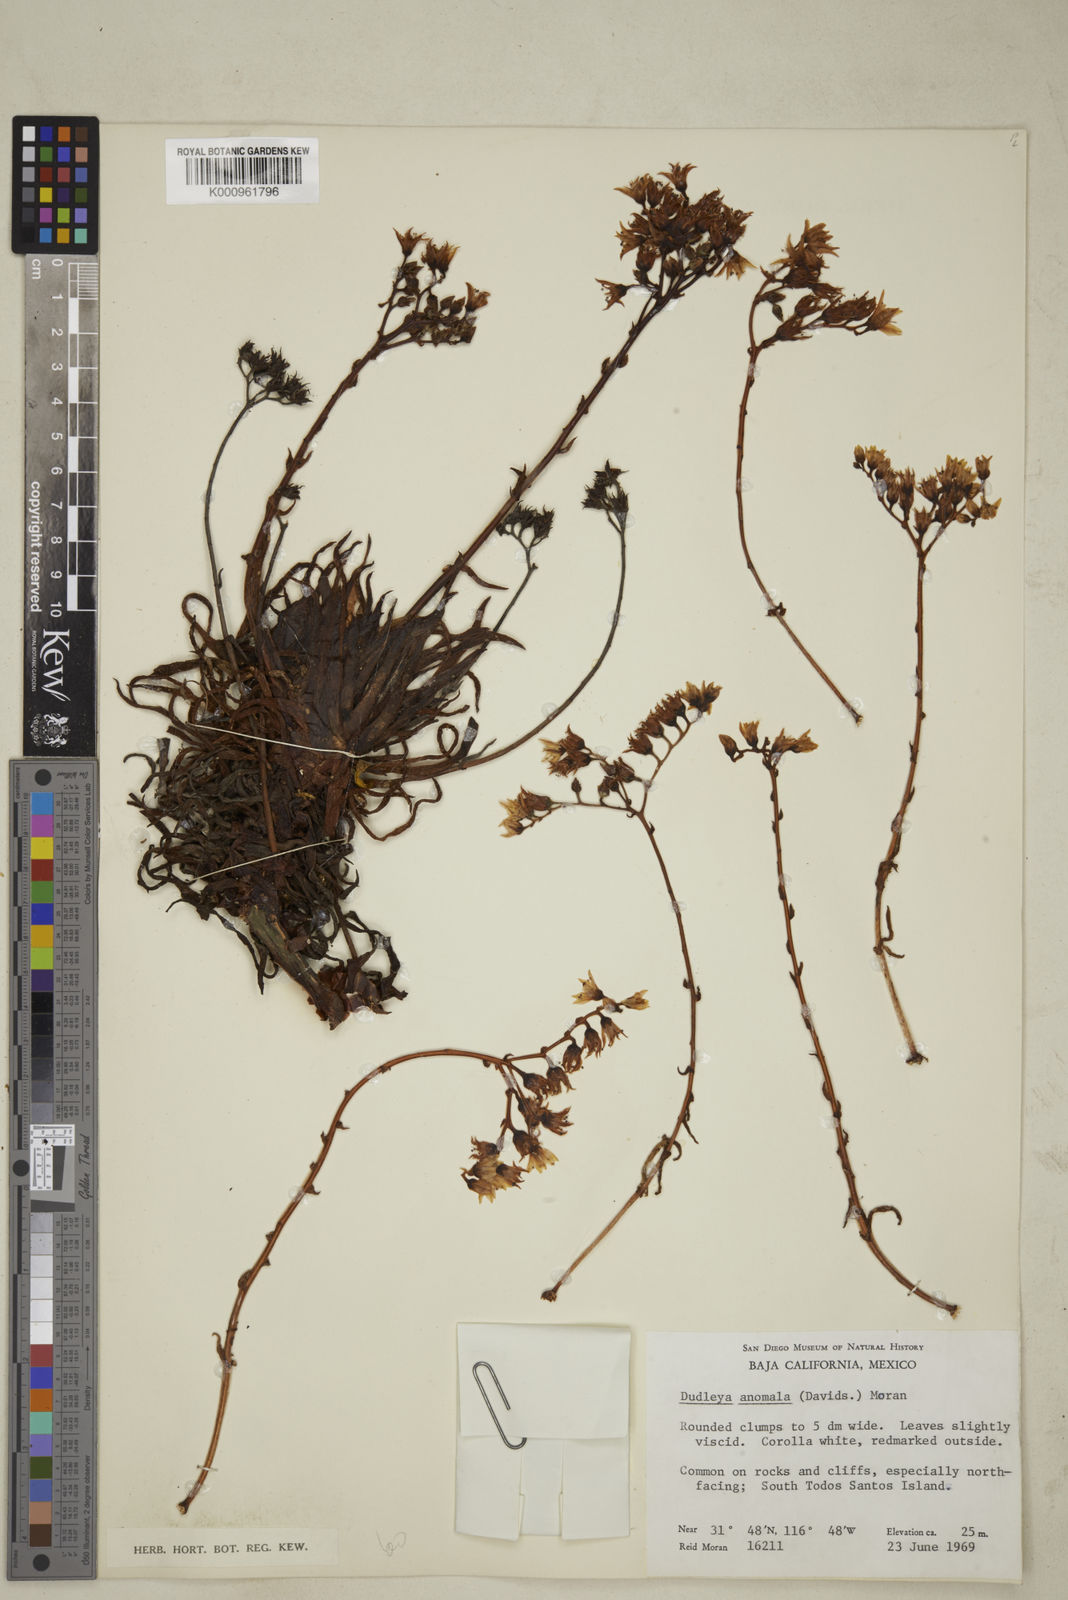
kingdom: Plantae
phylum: Tracheophyta
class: Magnoliopsida
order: Saxifragales
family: Crassulaceae
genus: Dudleya
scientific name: Dudleya anomala
